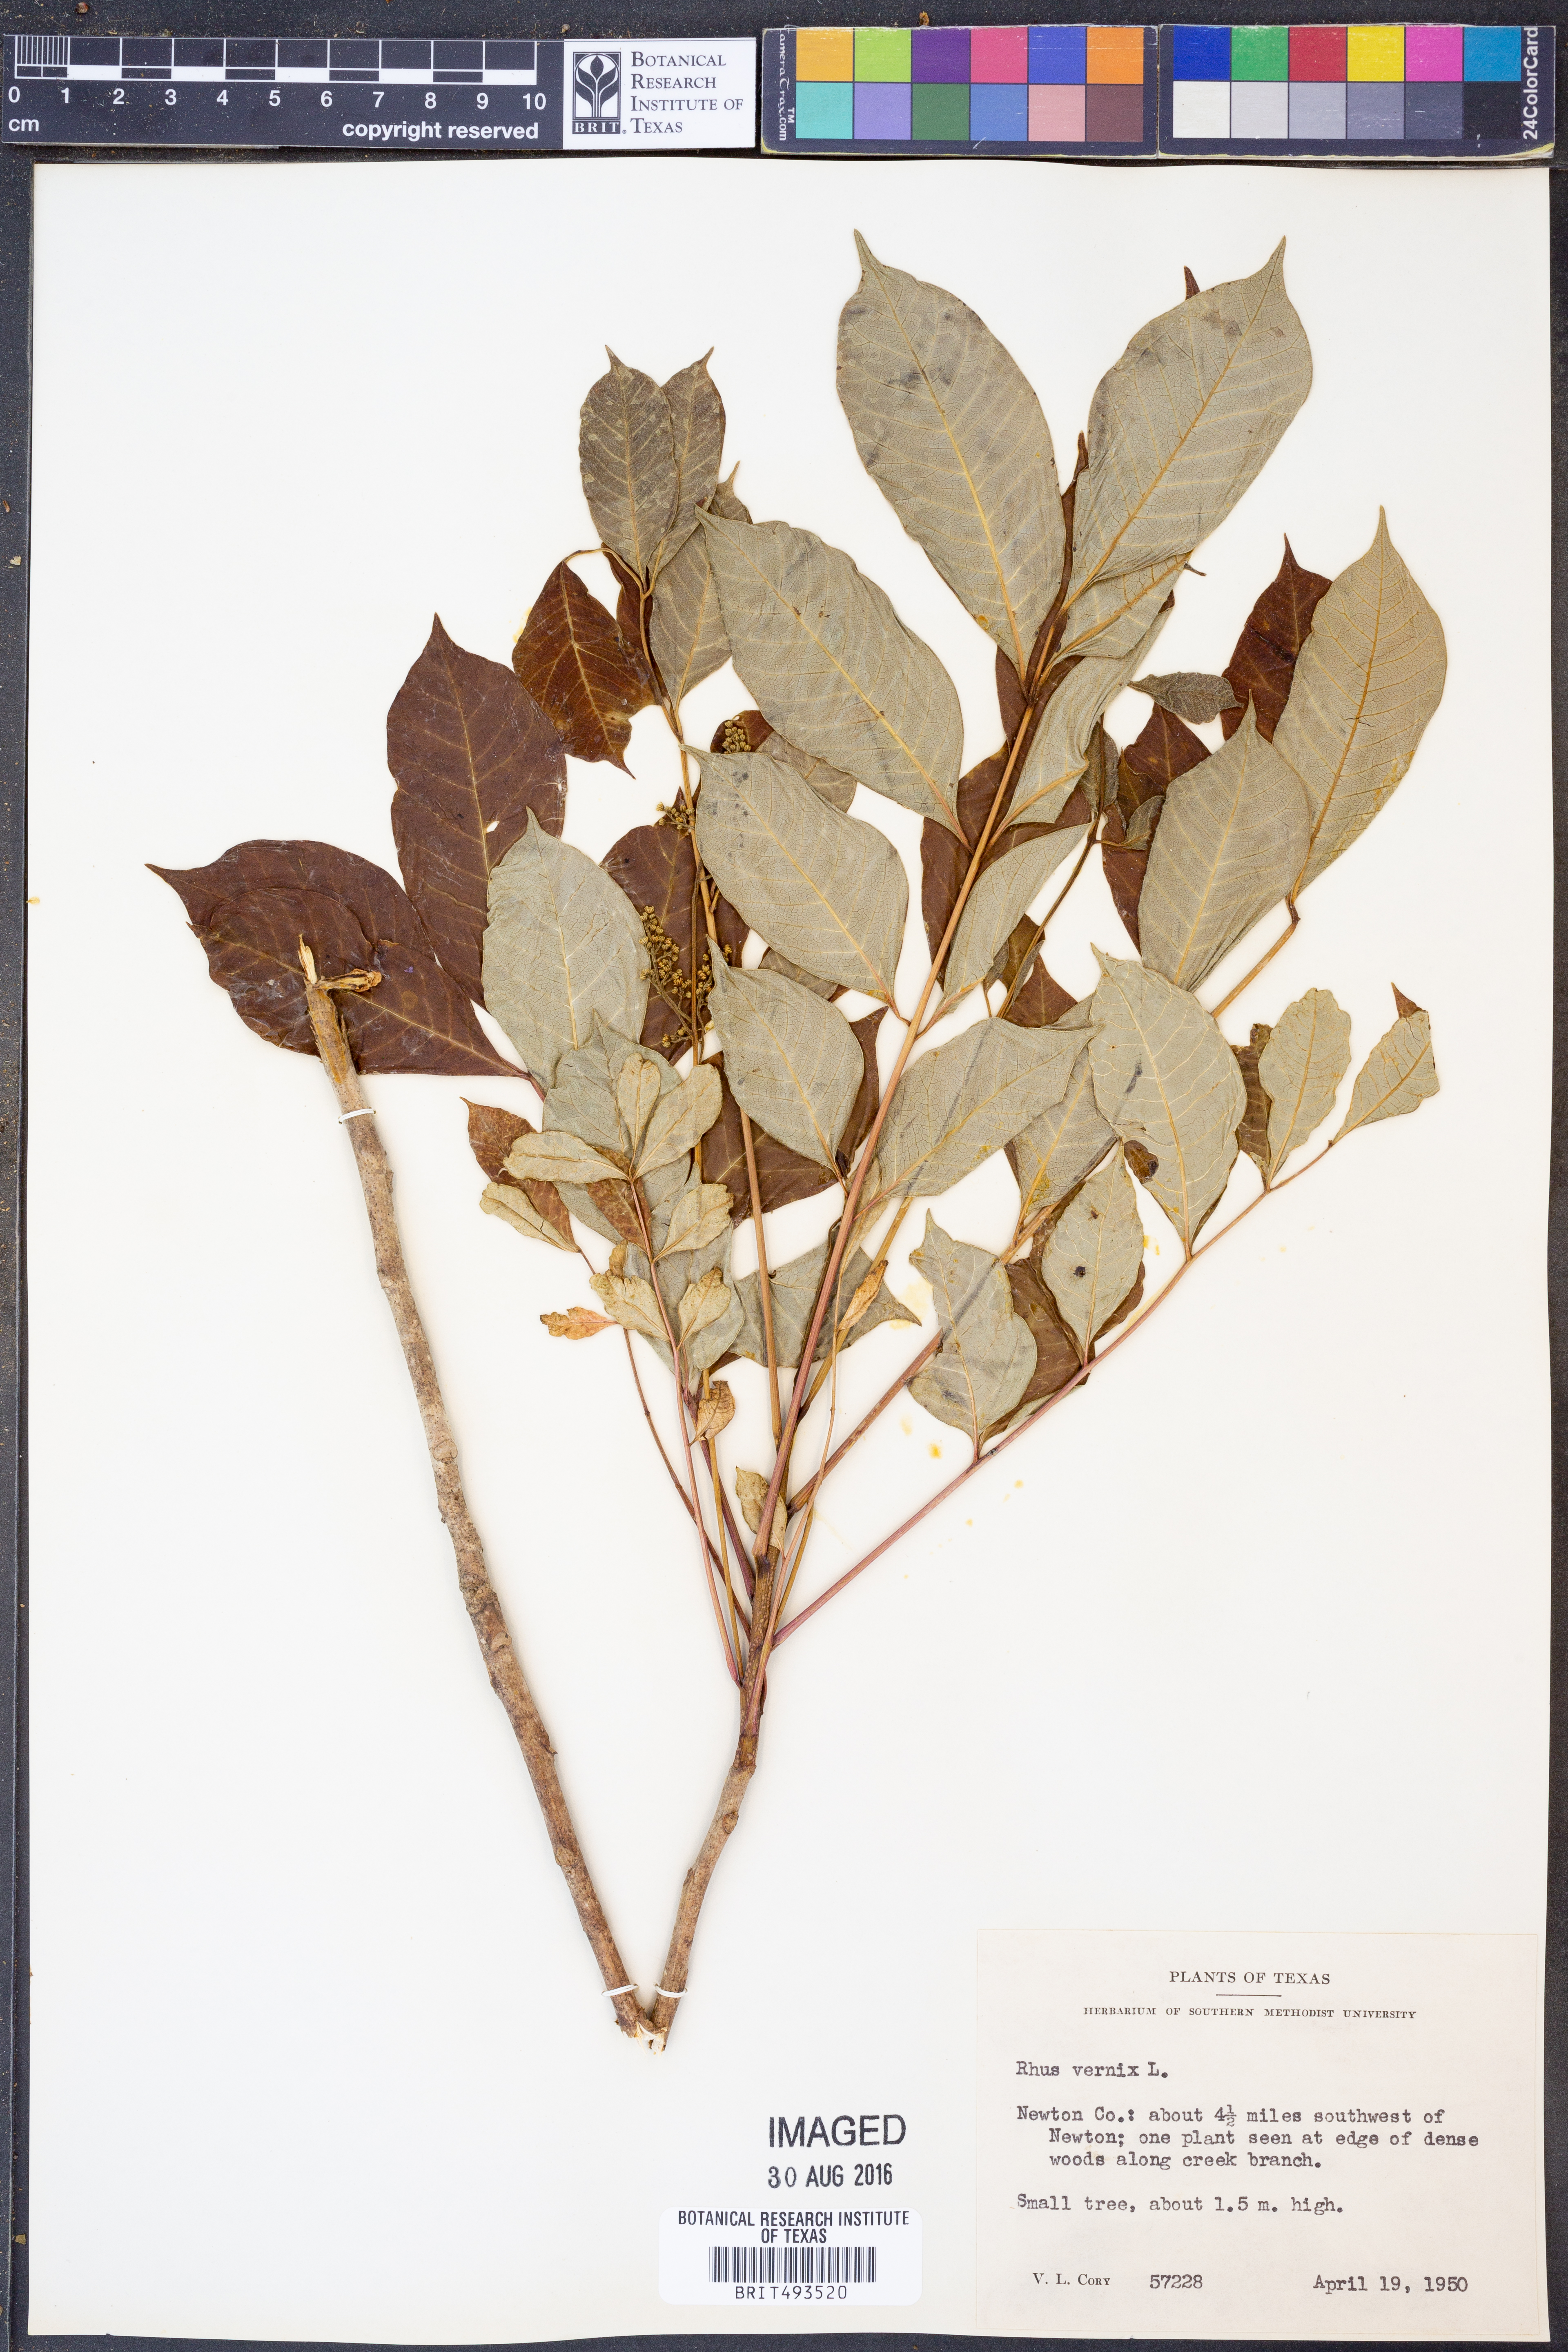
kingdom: Plantae
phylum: Tracheophyta
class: Magnoliopsida
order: Sapindales
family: Anacardiaceae
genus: Toxicodendron
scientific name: Toxicodendron vernix
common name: Poison sumac
